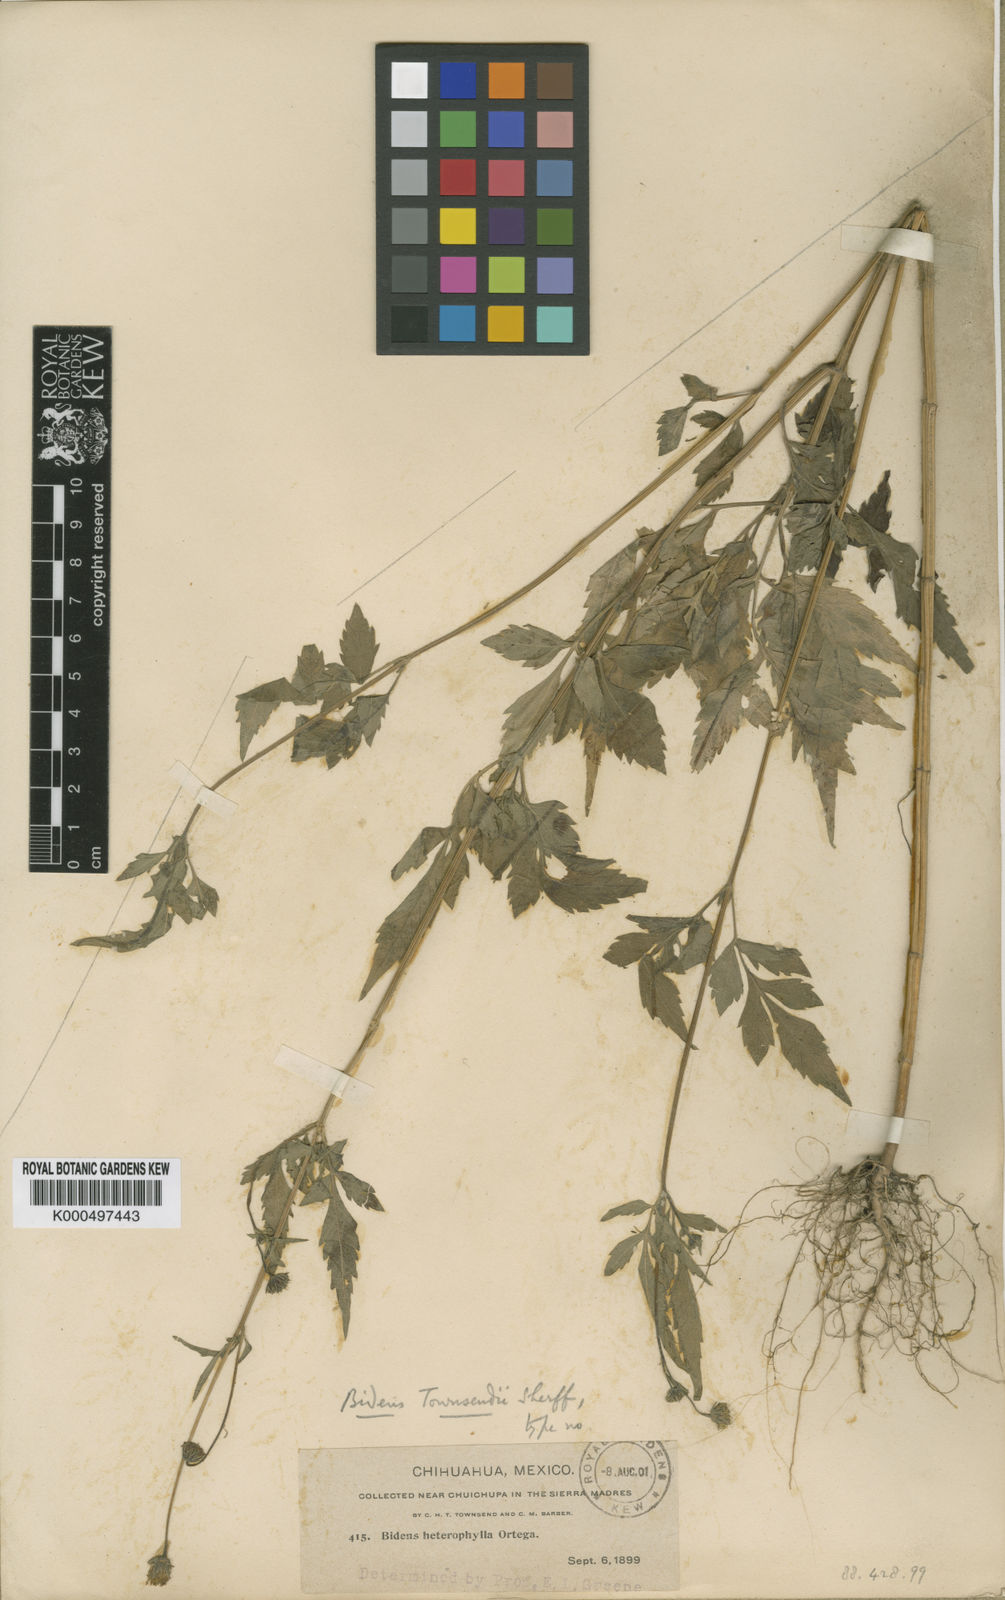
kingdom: Plantae
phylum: Tracheophyta
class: Magnoliopsida
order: Asterales
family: Asteraceae
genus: Bidens
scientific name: Bidens townsendii
